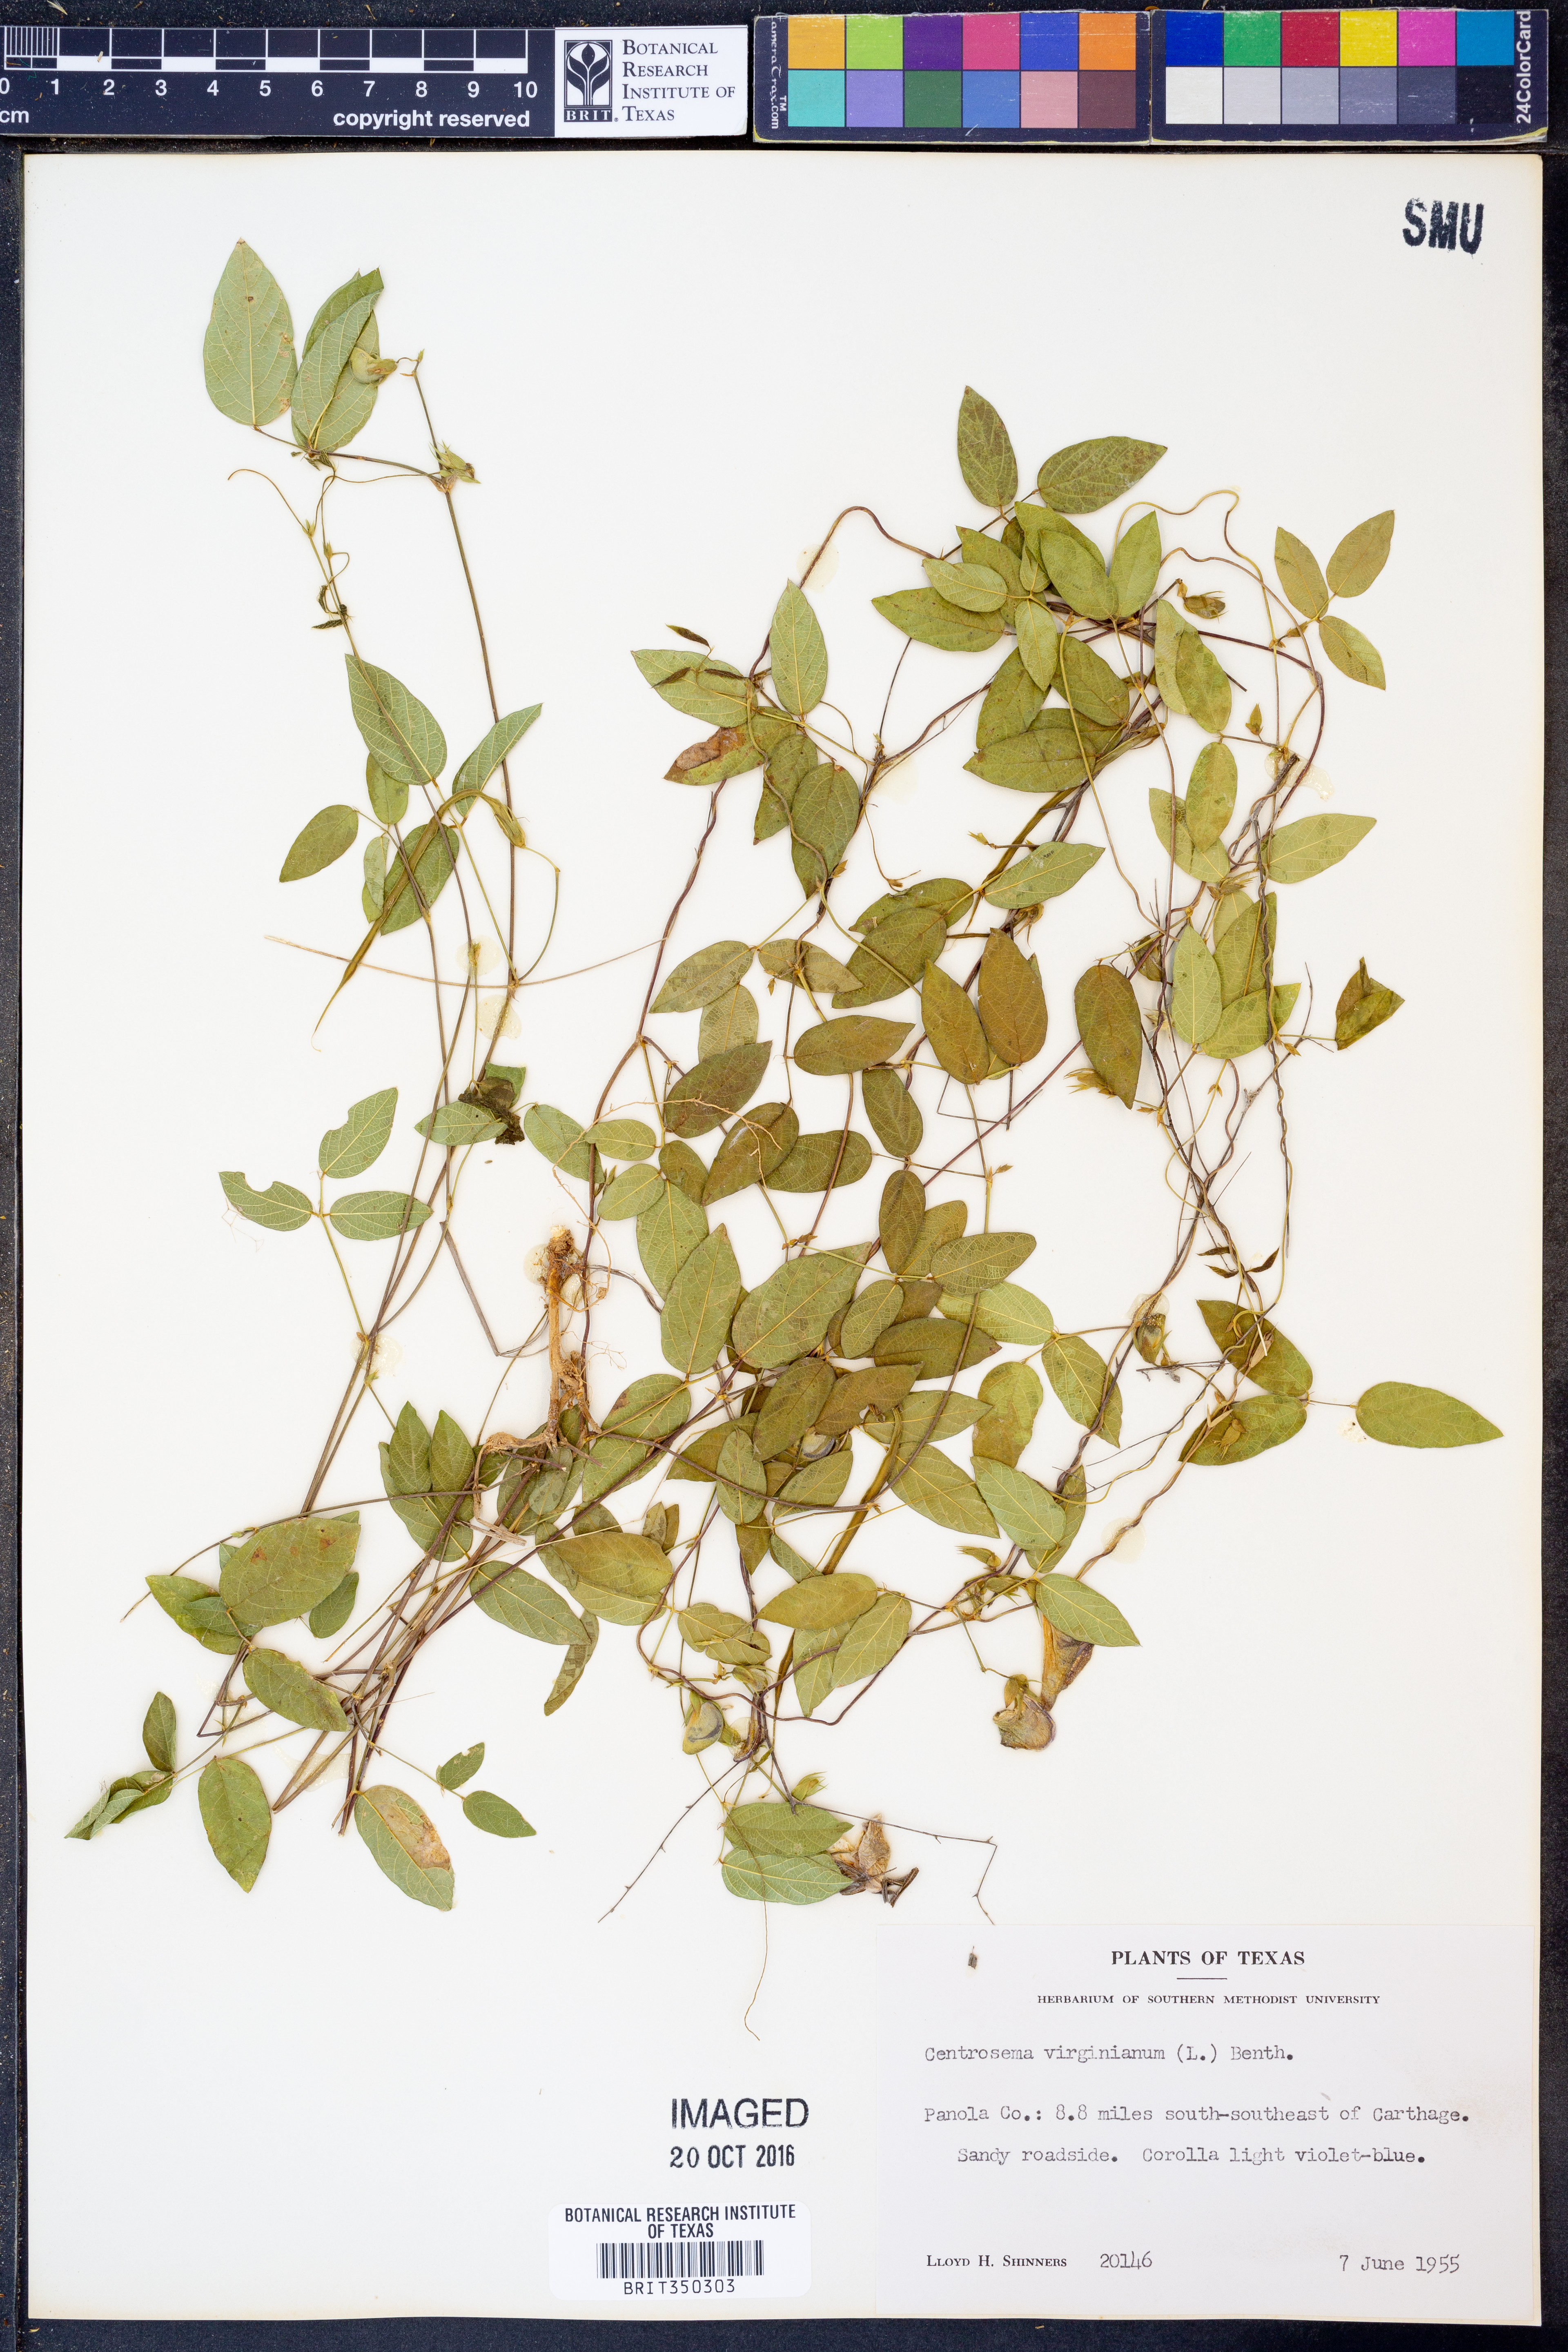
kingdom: Plantae
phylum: Tracheophyta
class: Magnoliopsida
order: Fabales
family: Fabaceae
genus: Centrosema
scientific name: Centrosema virginianum
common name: Butterfly-pea
